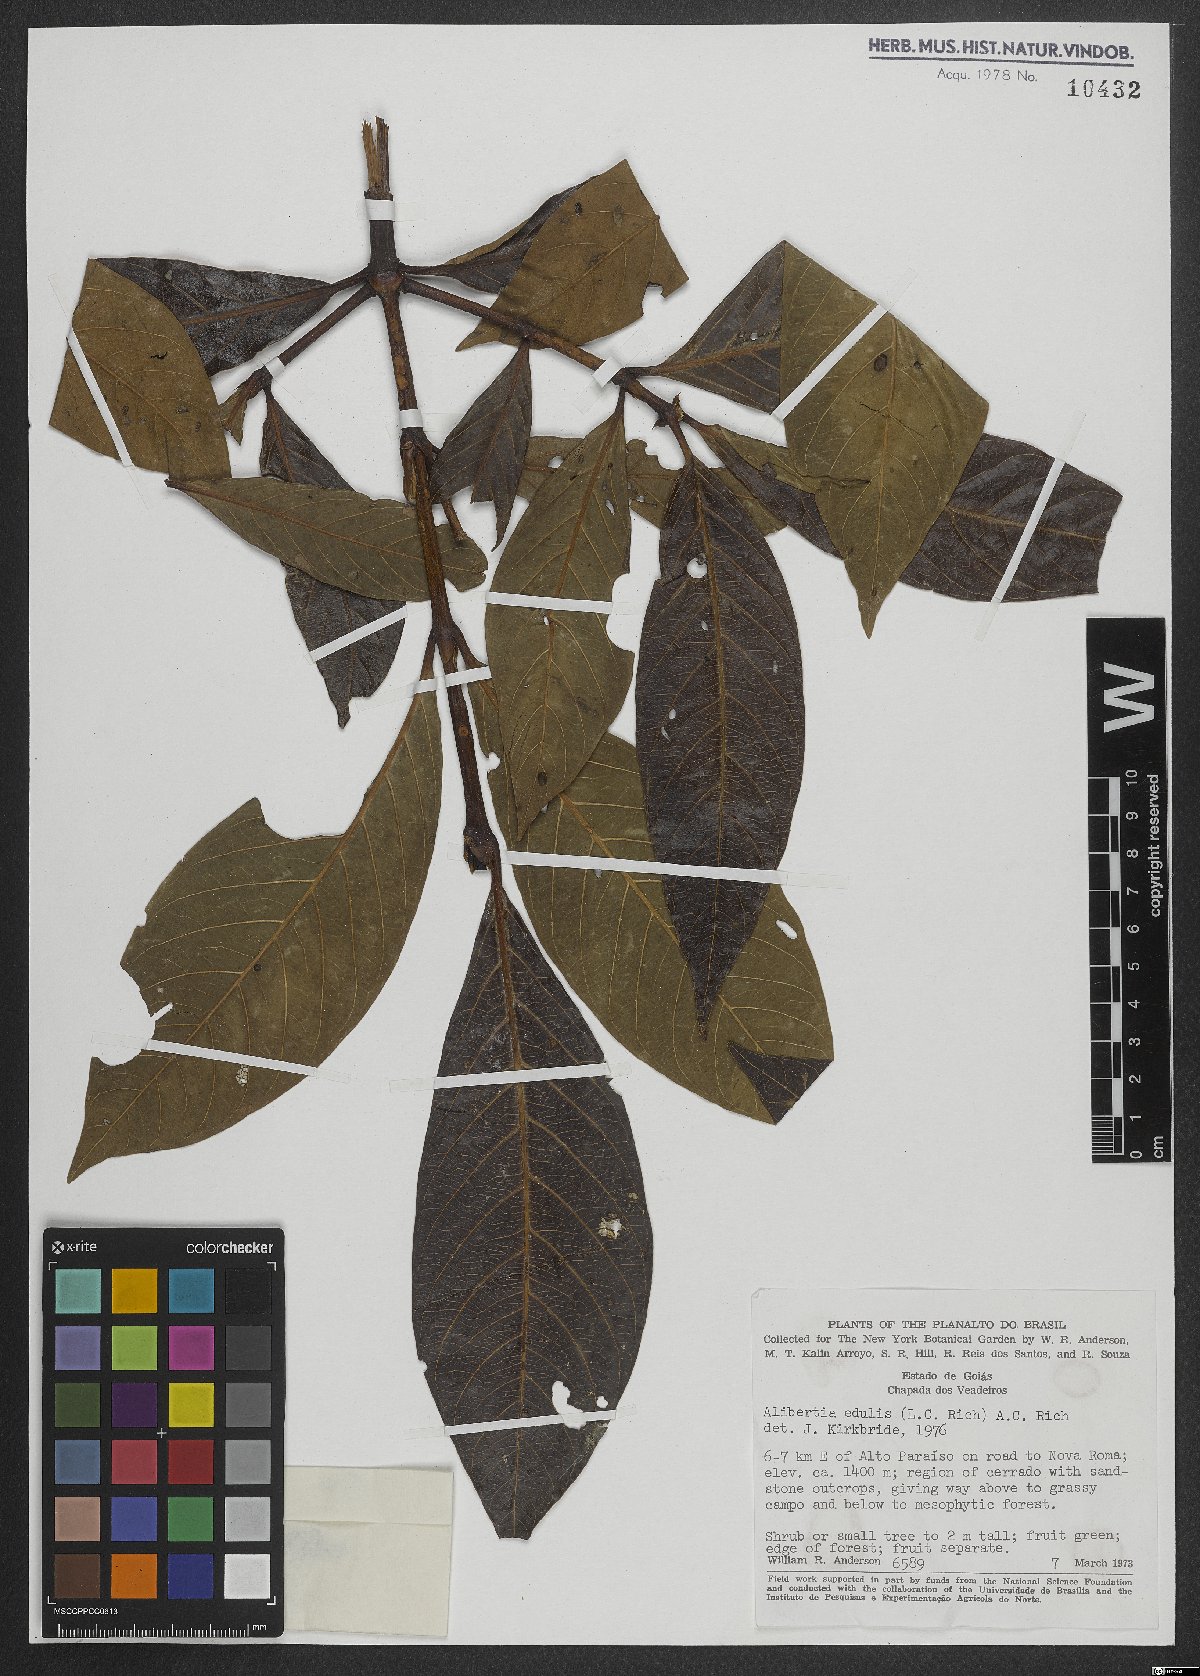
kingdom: Plantae
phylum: Tracheophyta
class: Magnoliopsida
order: Gentianales
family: Rubiaceae
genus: Alibertia
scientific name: Alibertia edulis
